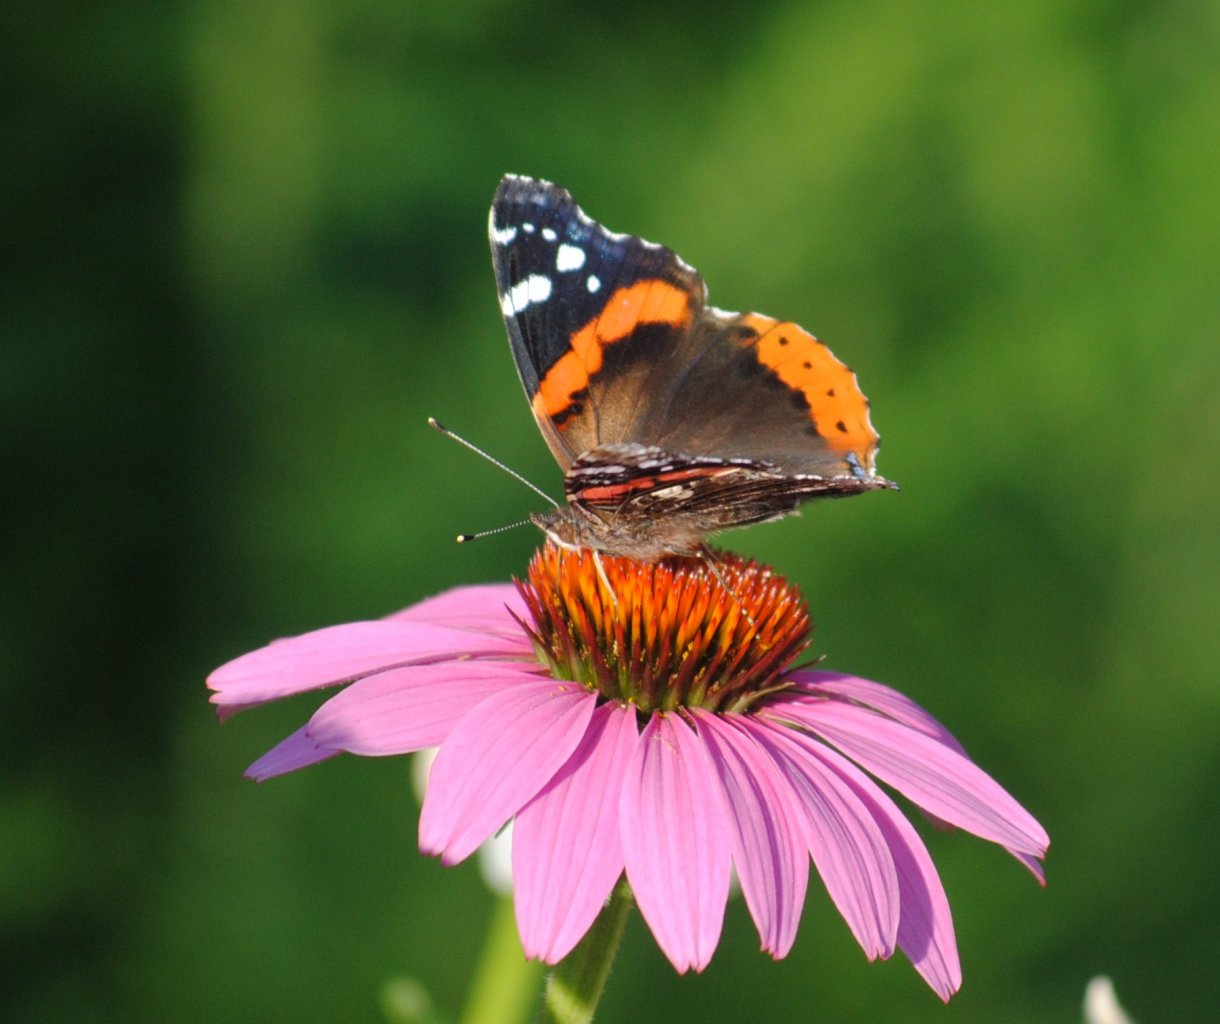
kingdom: Animalia
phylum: Arthropoda
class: Insecta
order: Lepidoptera
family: Nymphalidae
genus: Vanessa
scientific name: Vanessa atalanta
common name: Red Admiral
